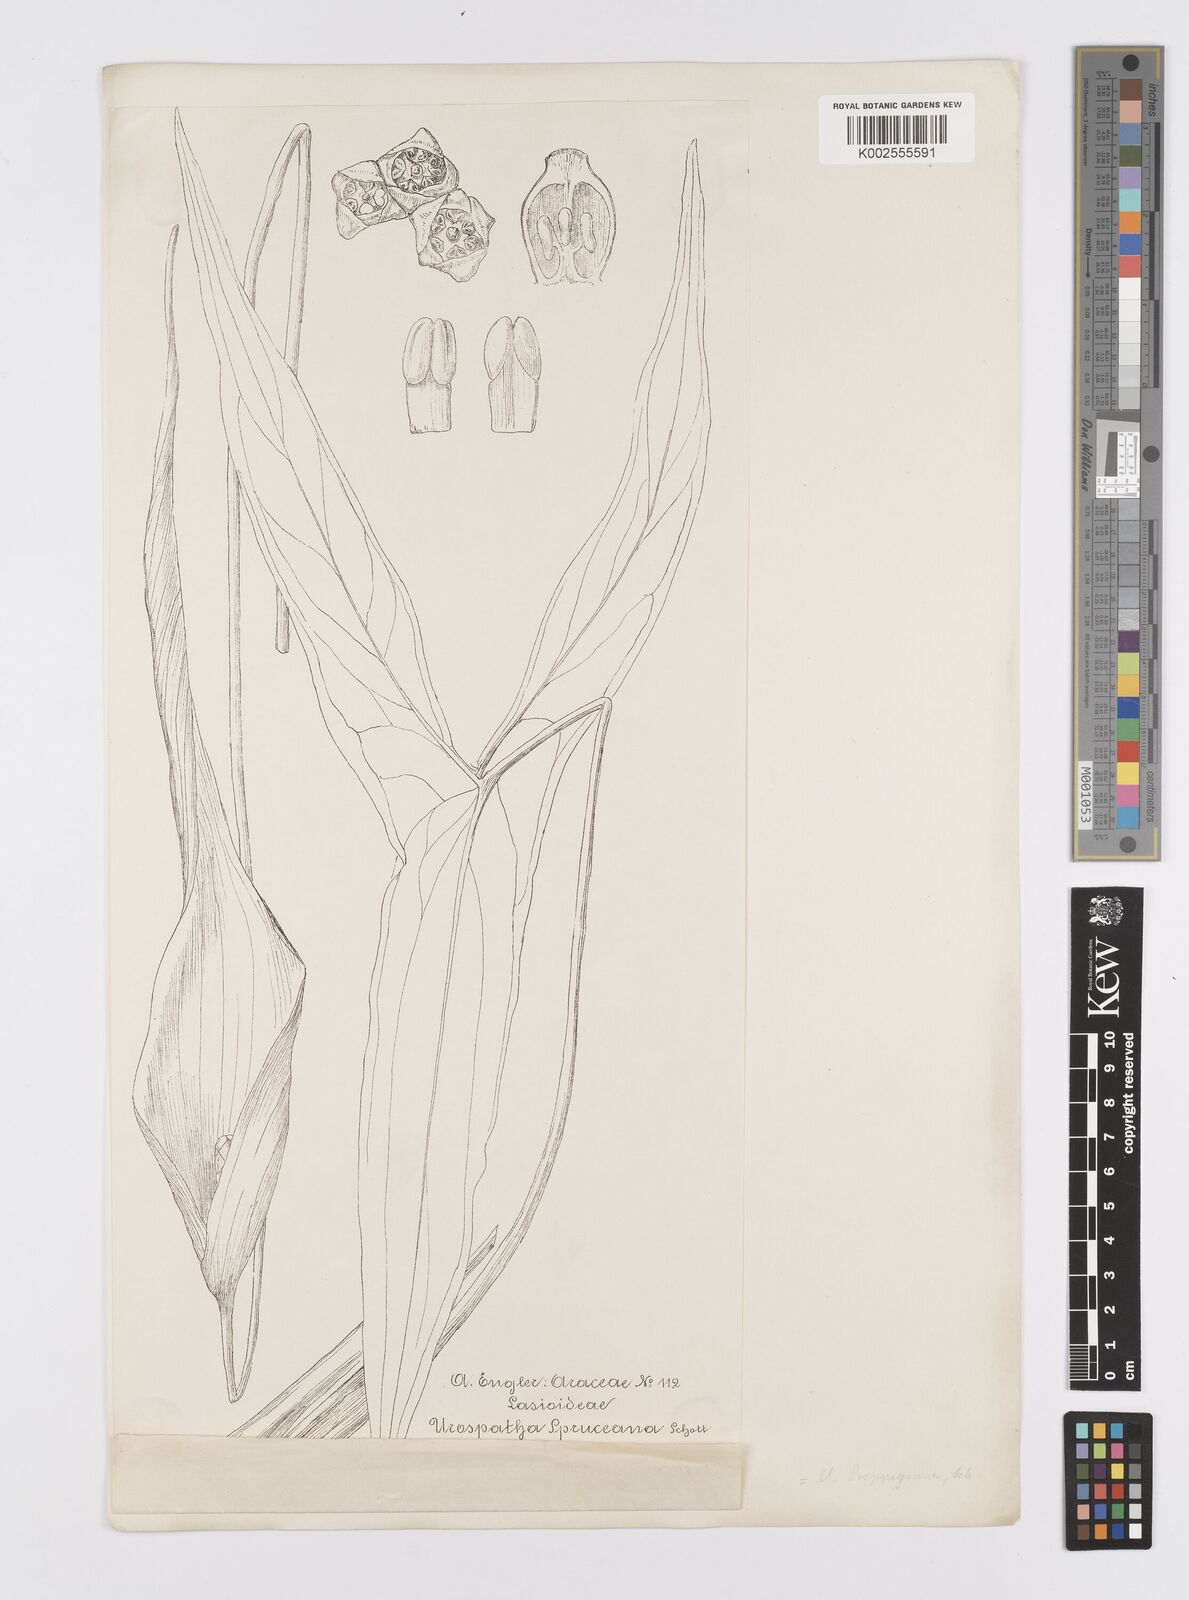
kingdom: Plantae
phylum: Tracheophyta
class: Liliopsida
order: Alismatales
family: Araceae
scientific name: Araceae
